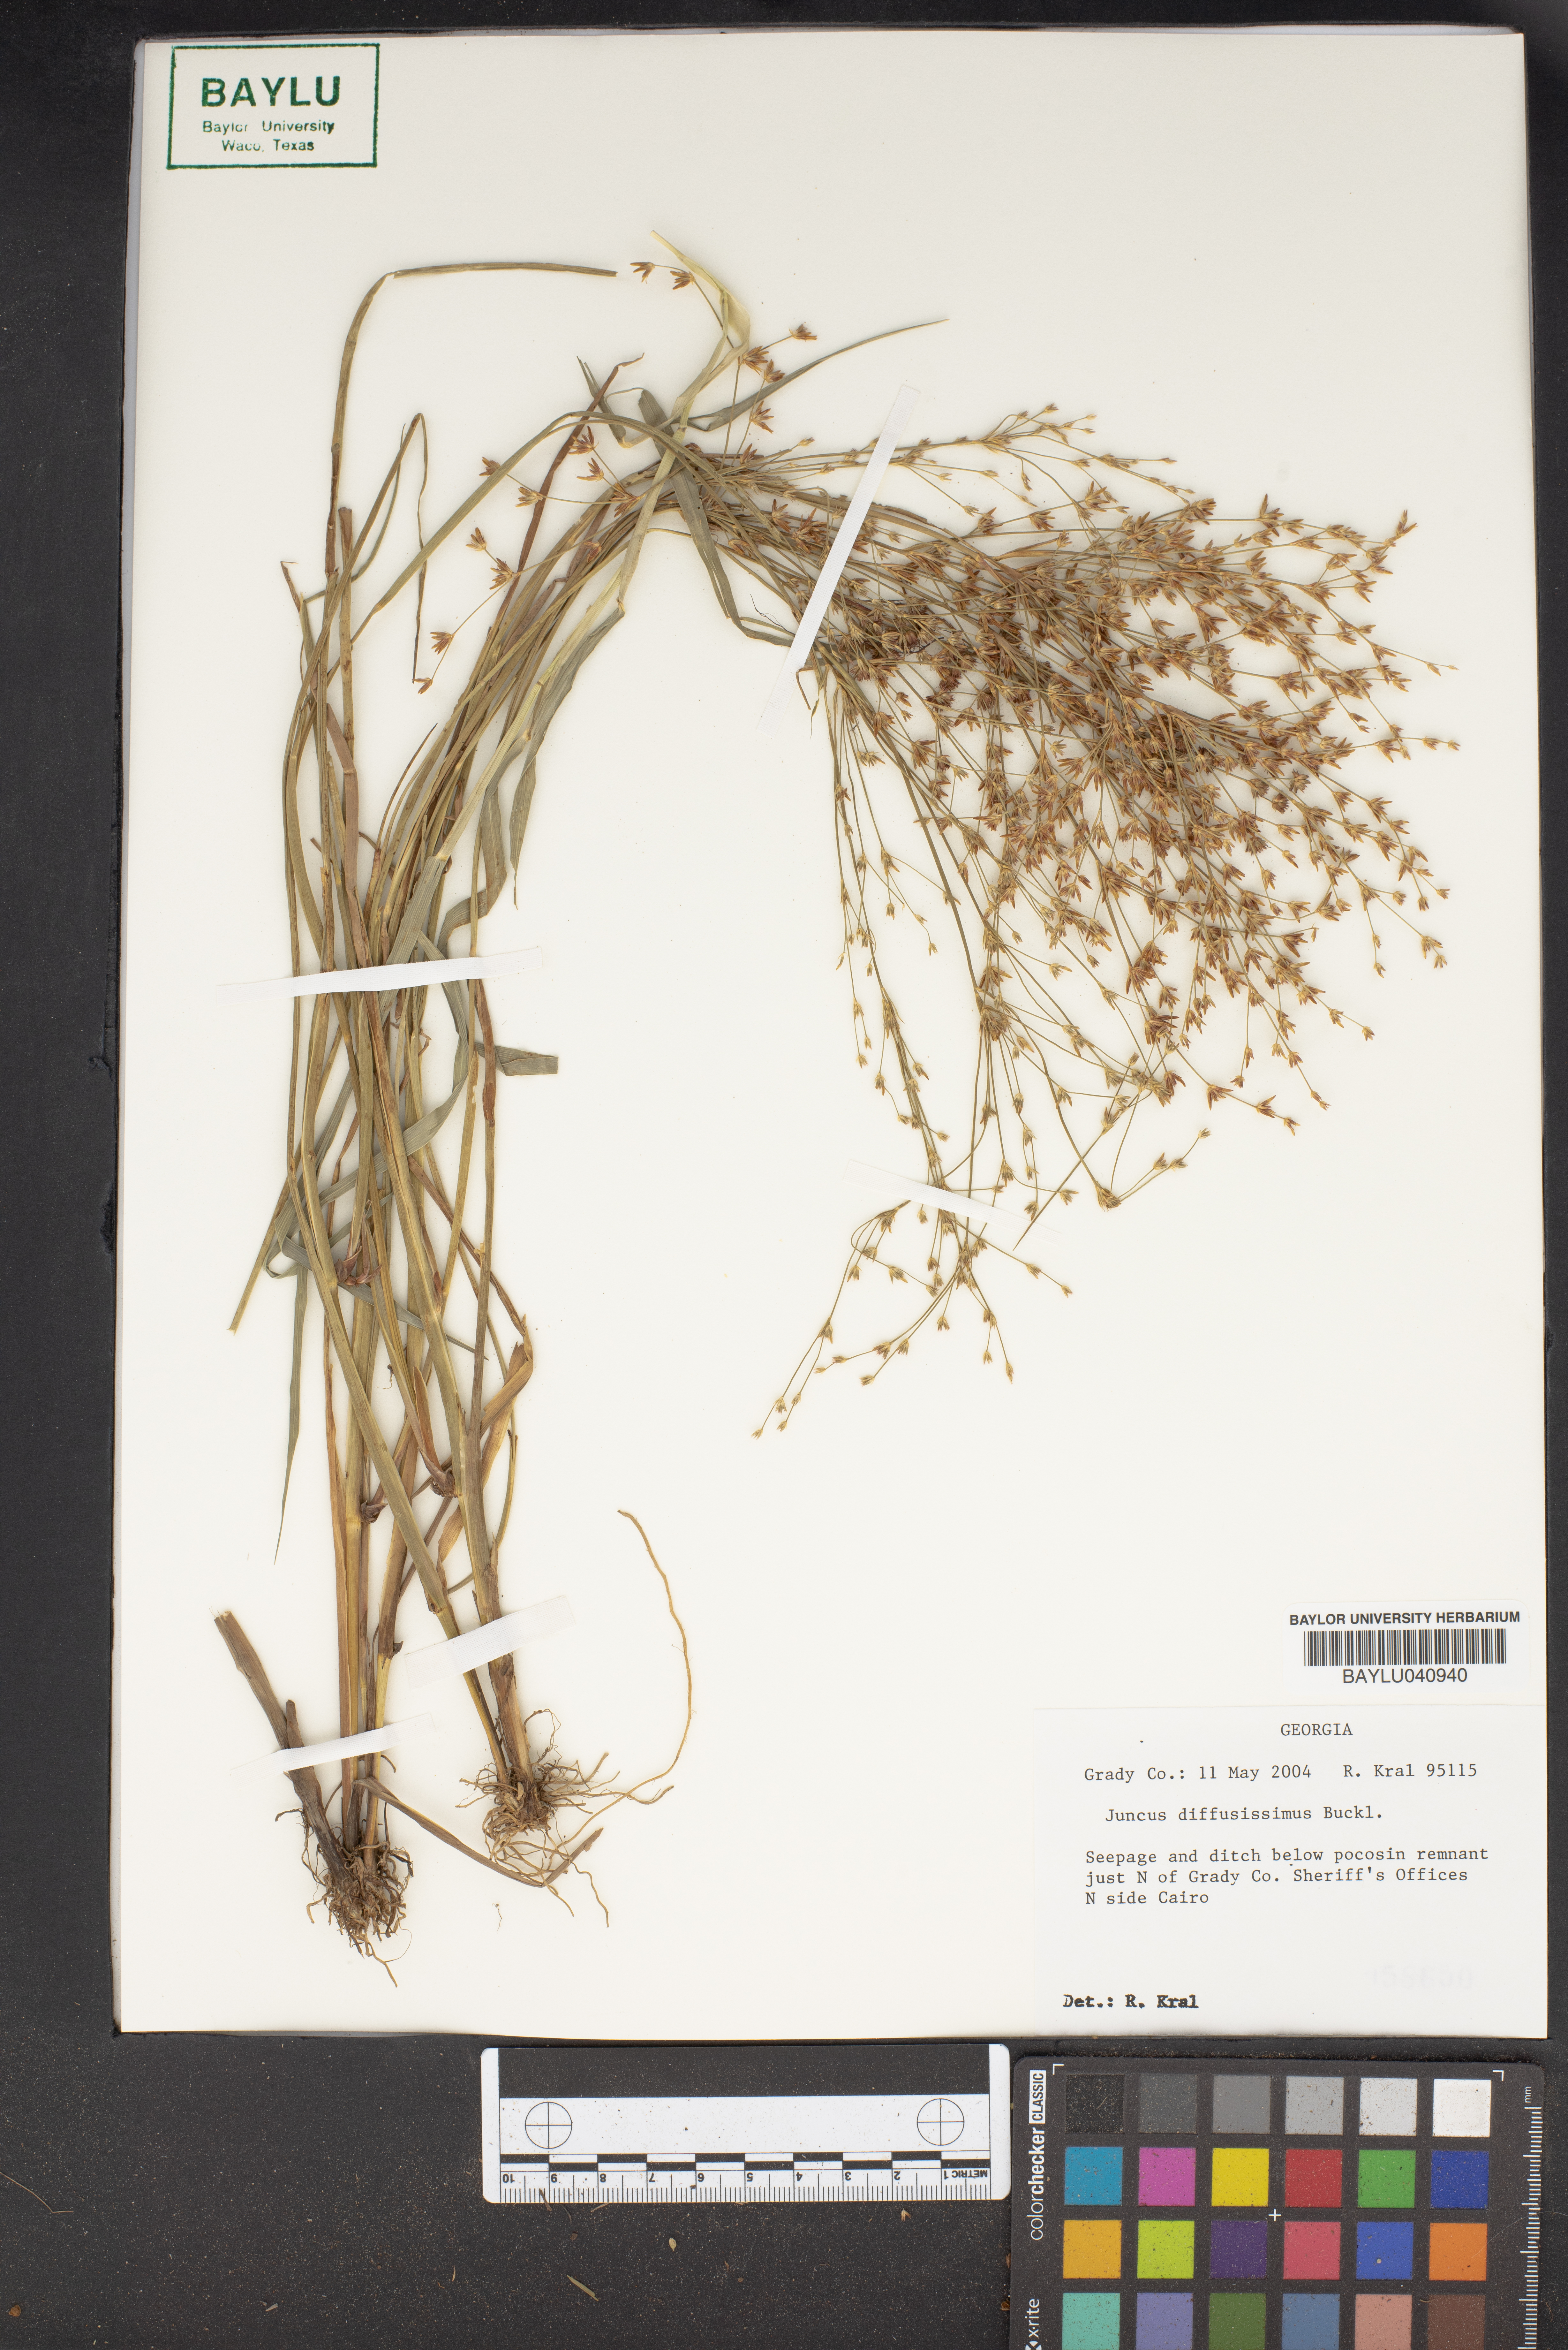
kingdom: Plantae
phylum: Tracheophyta
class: Liliopsida
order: Poales
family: Juncaceae
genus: Juncus
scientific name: Juncus diffusissimus
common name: Slimpod rush
